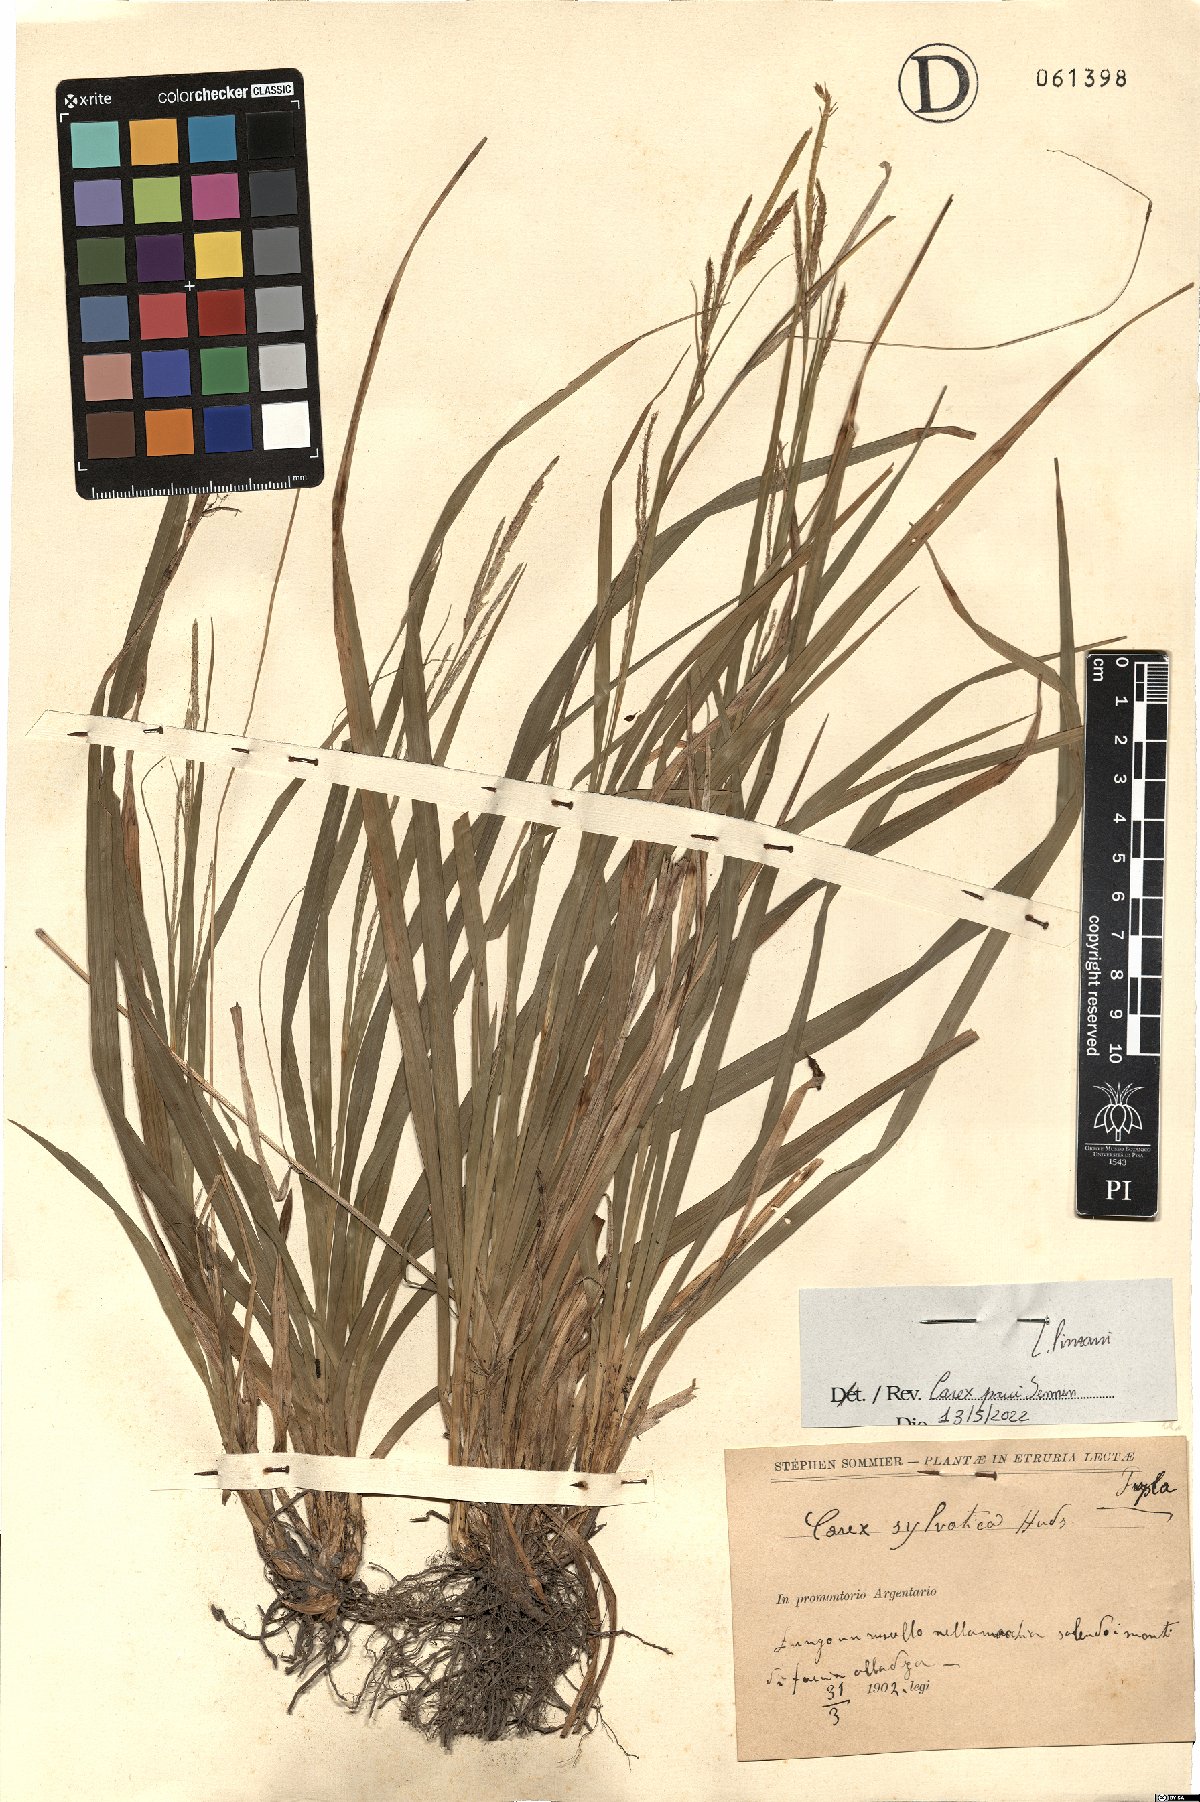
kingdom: Plantae
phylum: Tracheophyta
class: Liliopsida
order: Poales
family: Cyperaceae
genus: Carex
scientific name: Carex sylvatica
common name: Wood-sedge
